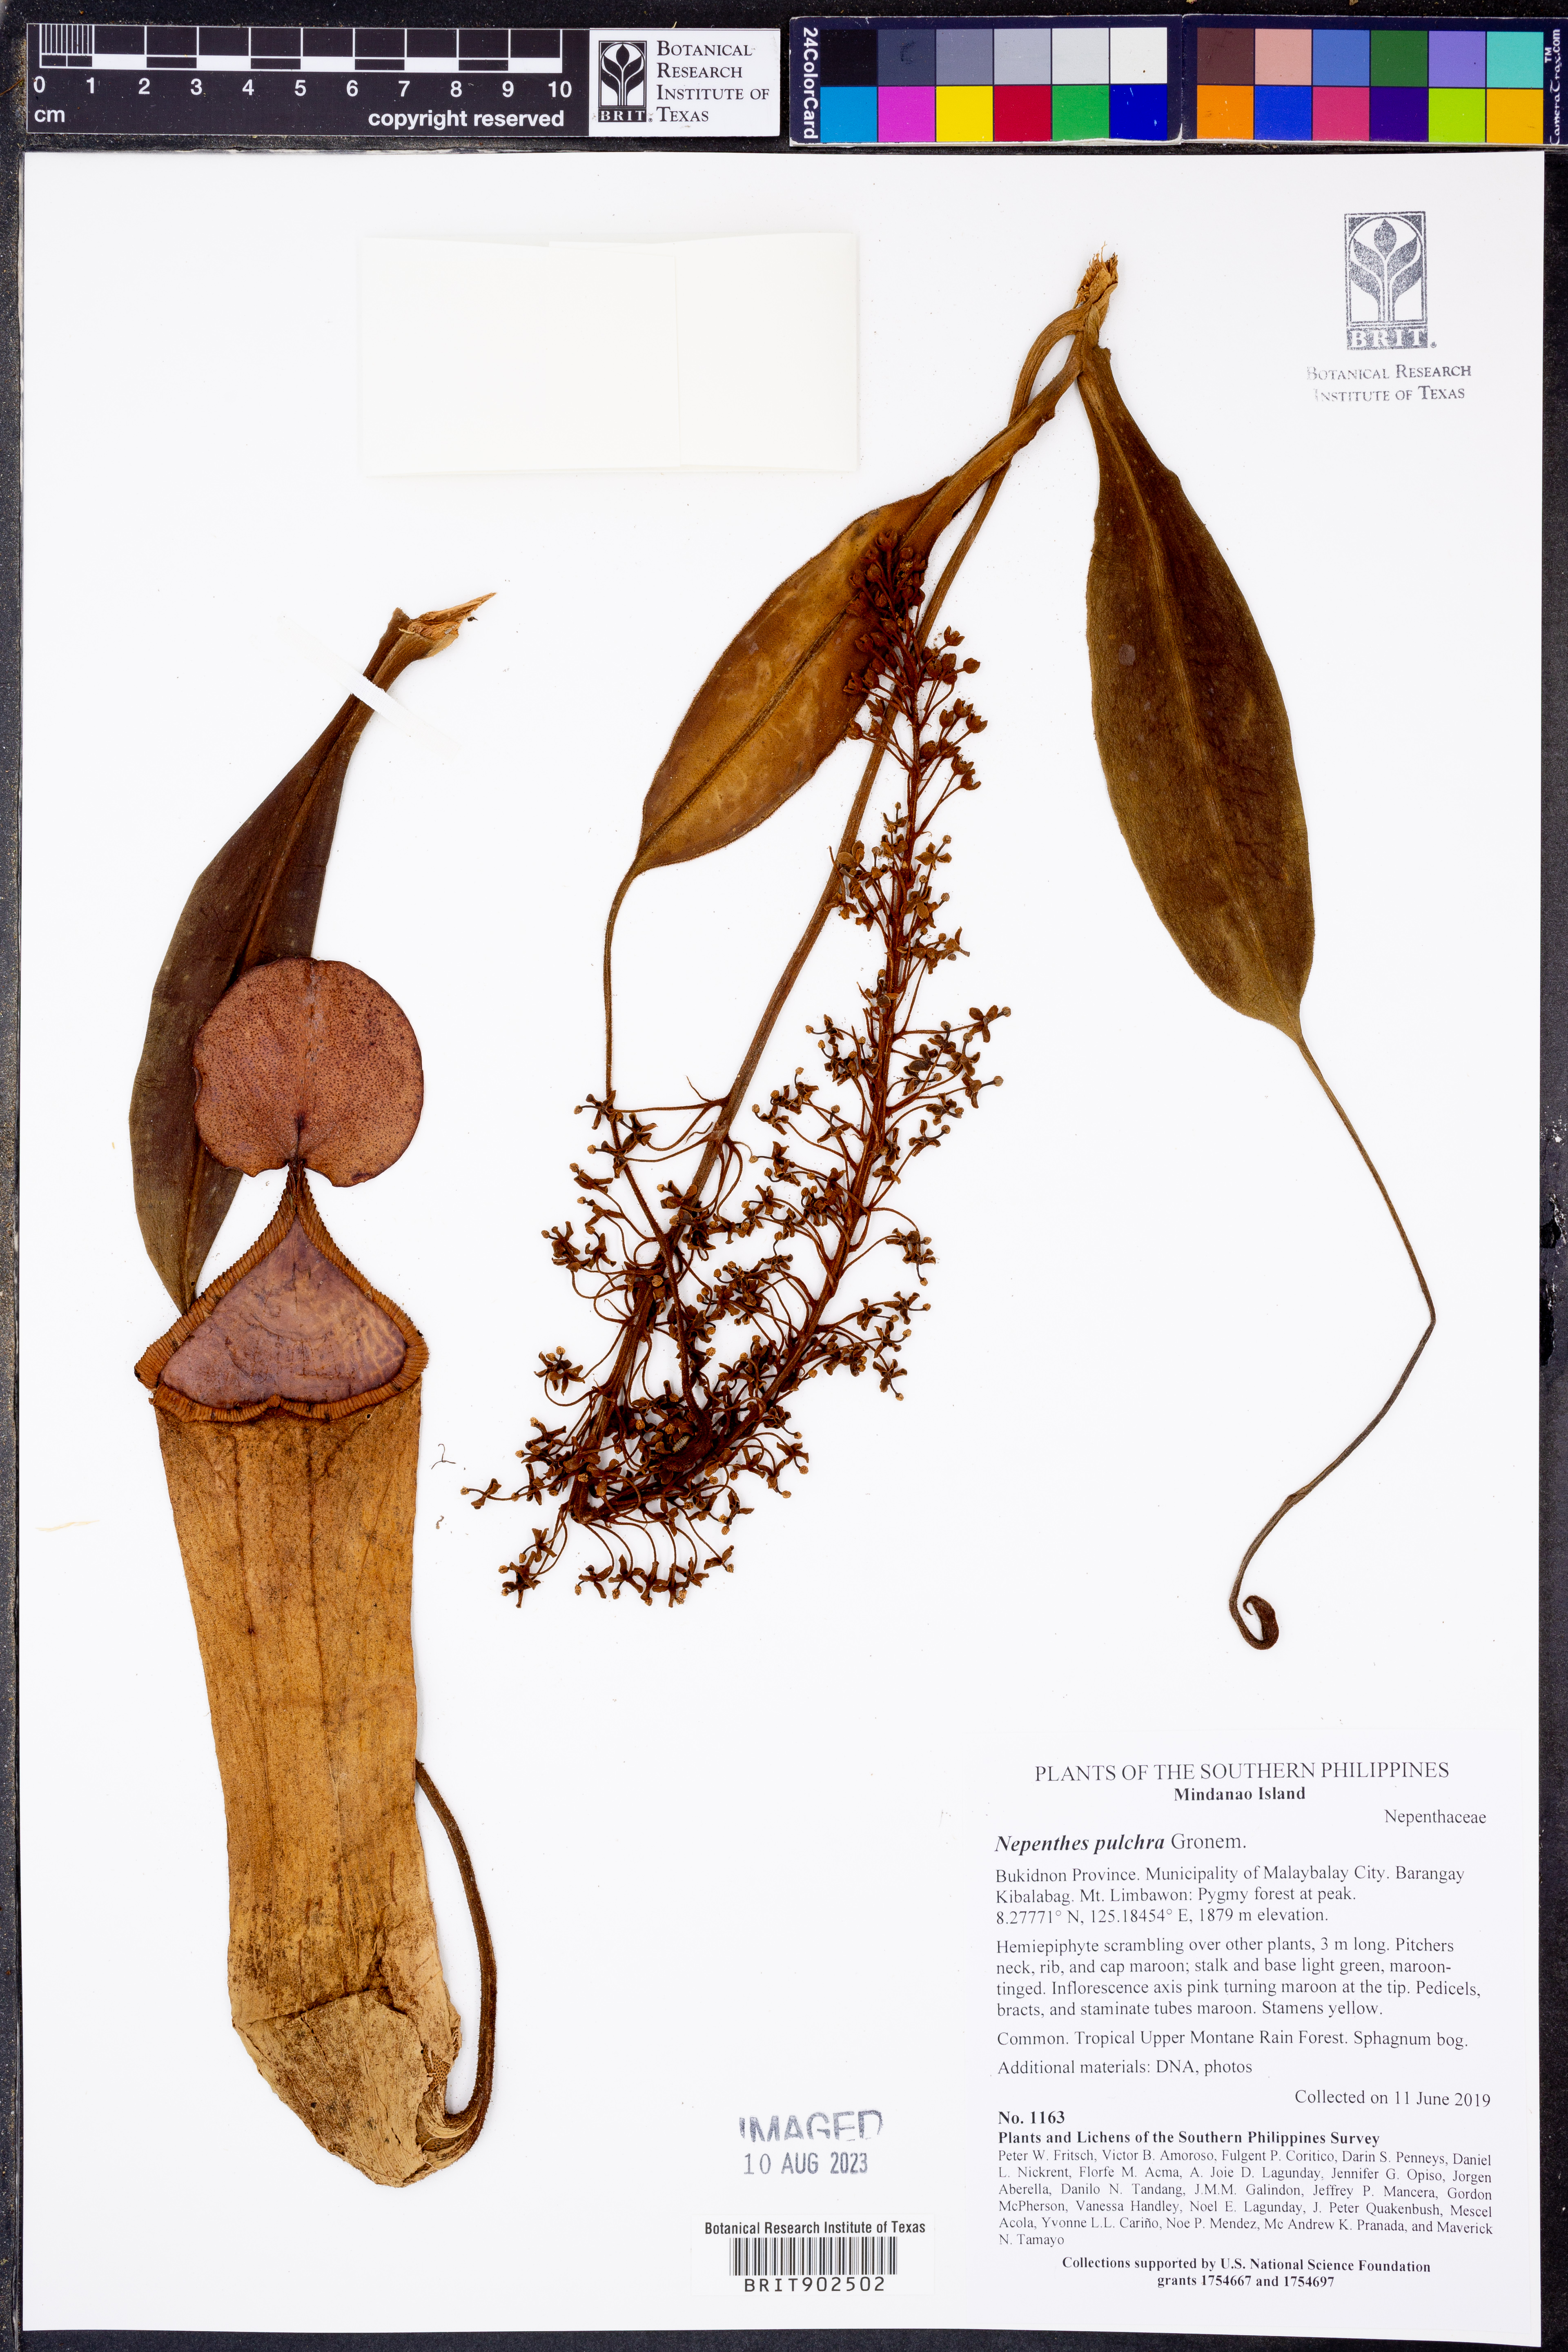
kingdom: Plantae
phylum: Tracheophyta
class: Magnoliopsida
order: Caryophyllales
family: Nepenthaceae
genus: Nepenthes
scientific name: Nepenthes pulchra
